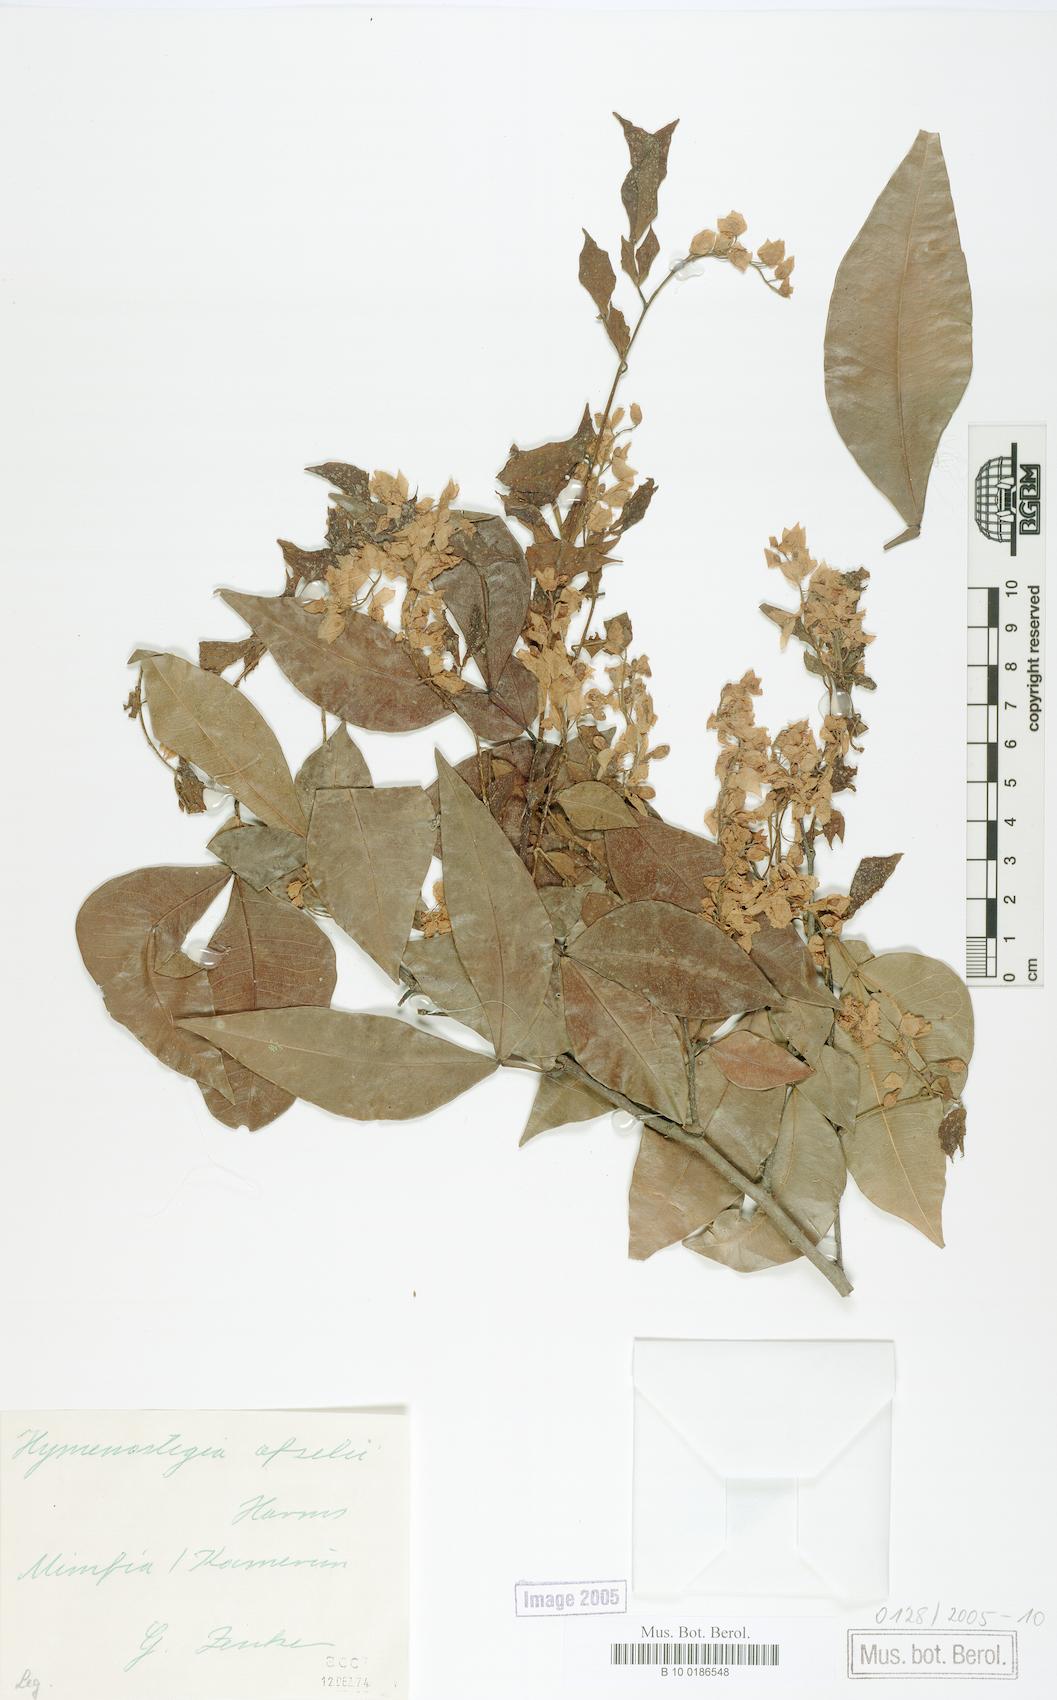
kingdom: Plantae
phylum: Tracheophyta
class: Magnoliopsida
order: Fabales
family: Fabaceae
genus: Annea
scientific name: Annea afzelii
